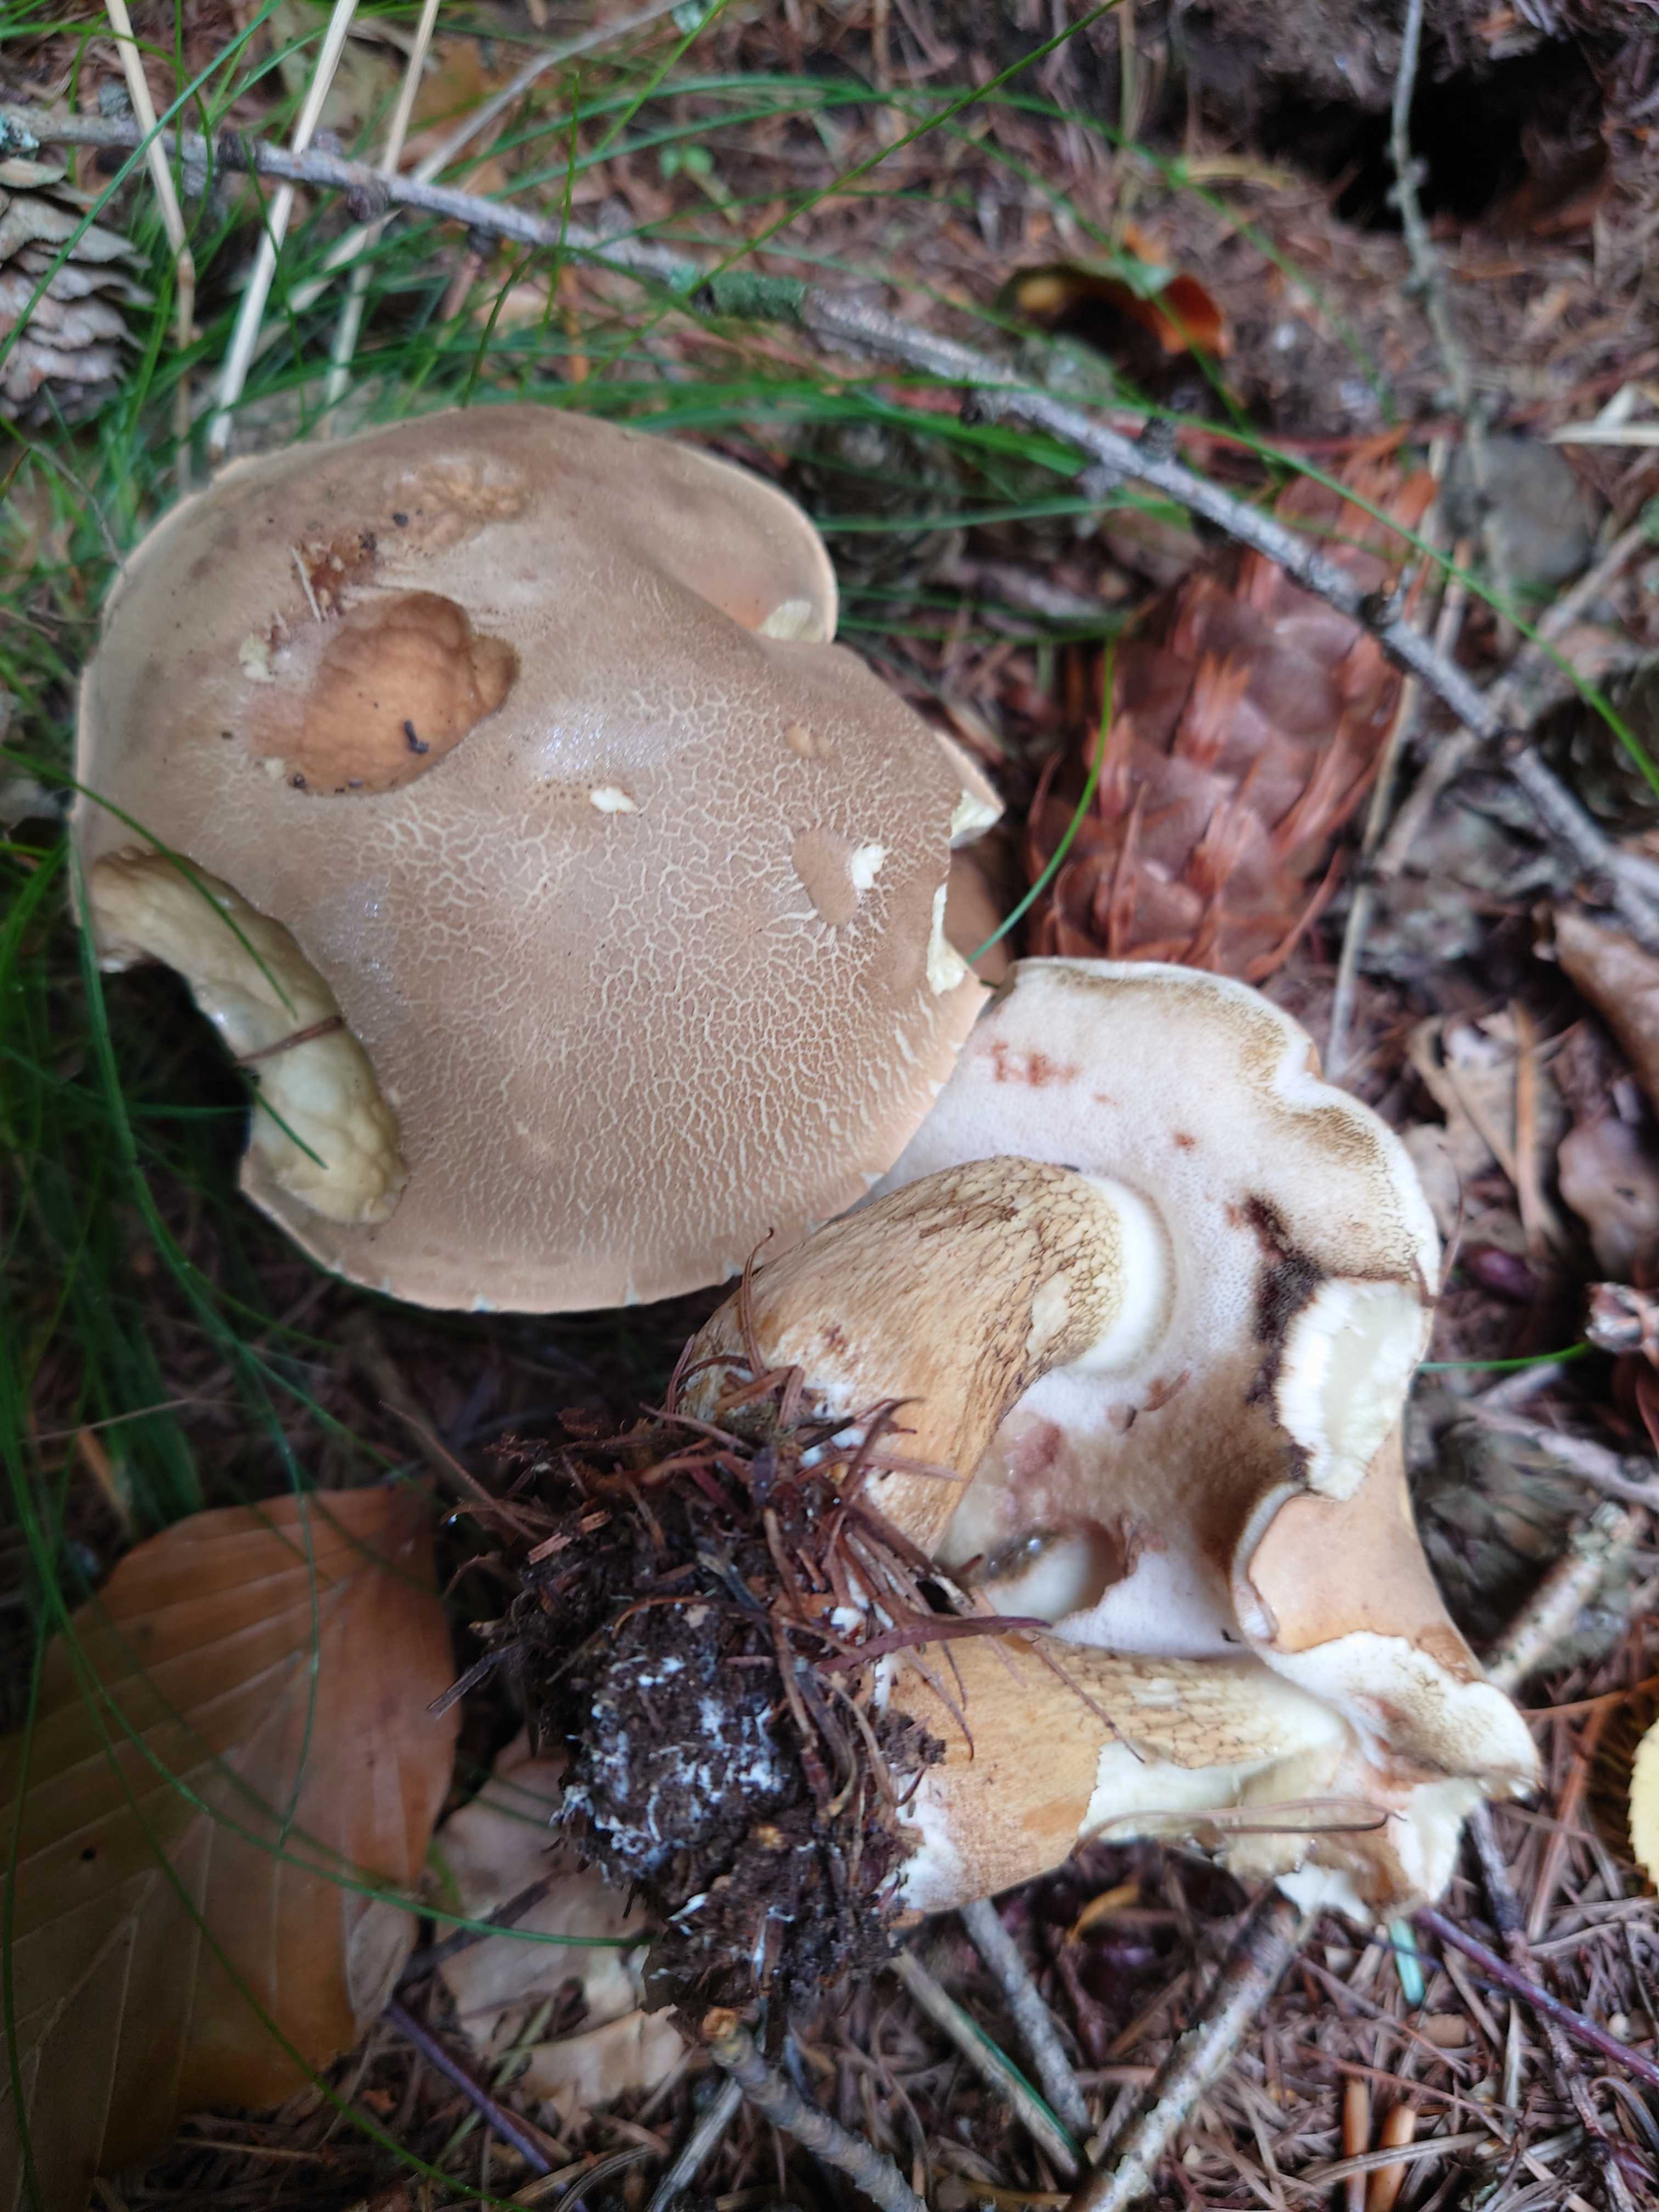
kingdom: Fungi
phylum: Basidiomycota
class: Agaricomycetes
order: Boletales
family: Boletaceae
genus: Tylopilus
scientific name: Tylopilus felleus
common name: galderørhat
